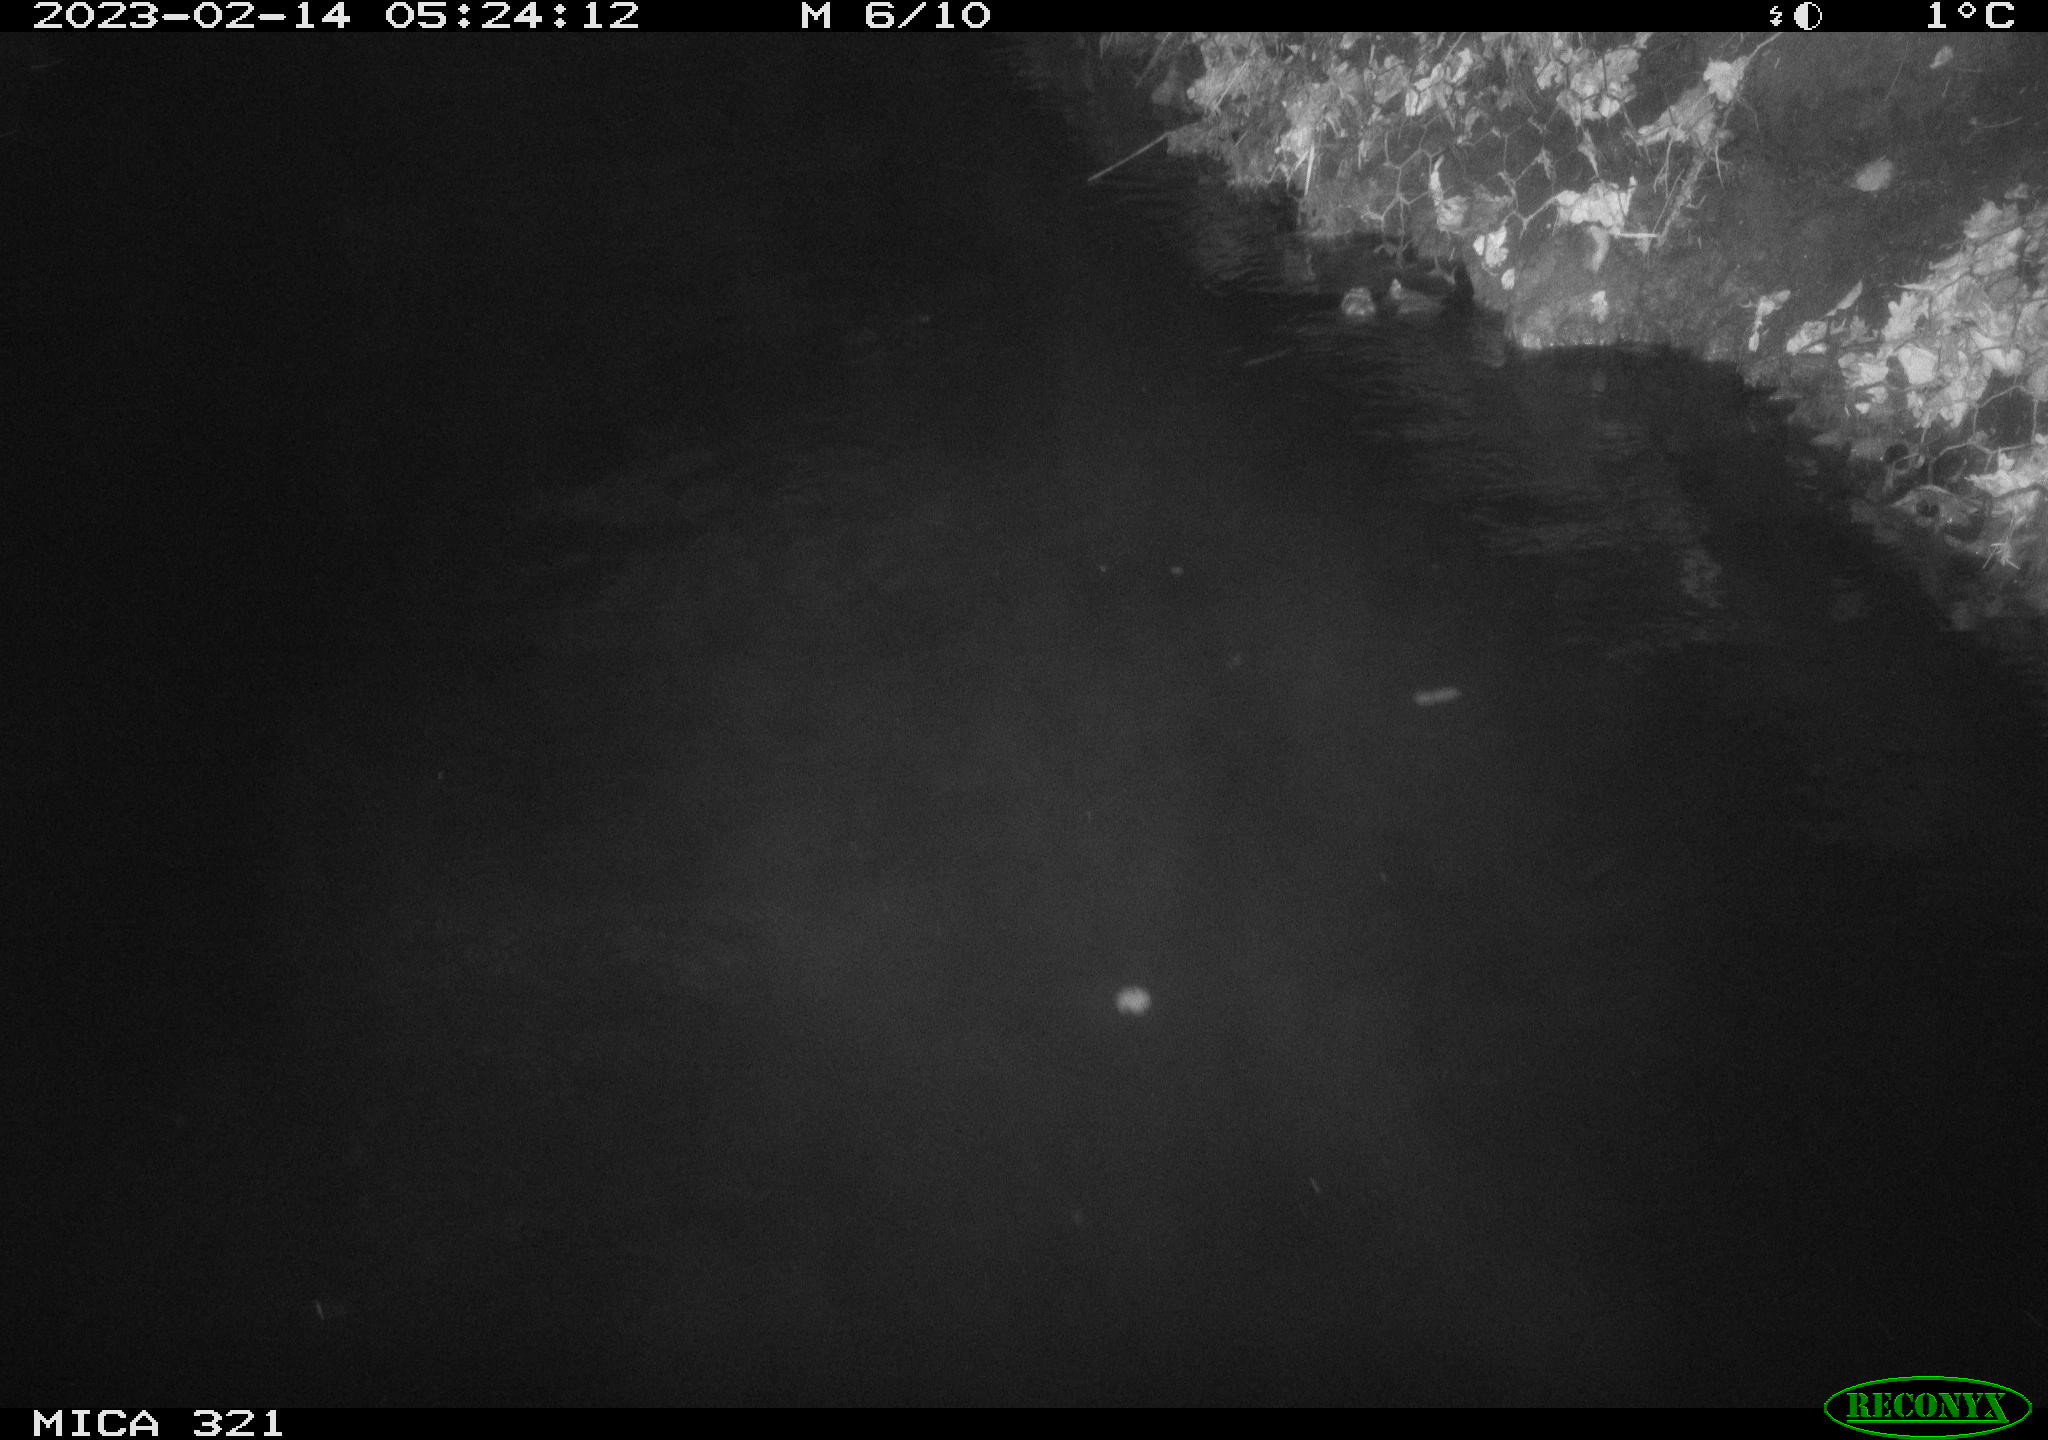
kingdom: Animalia
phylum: Chordata
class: Aves
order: Anseriformes
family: Anatidae
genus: Anas
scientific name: Anas
